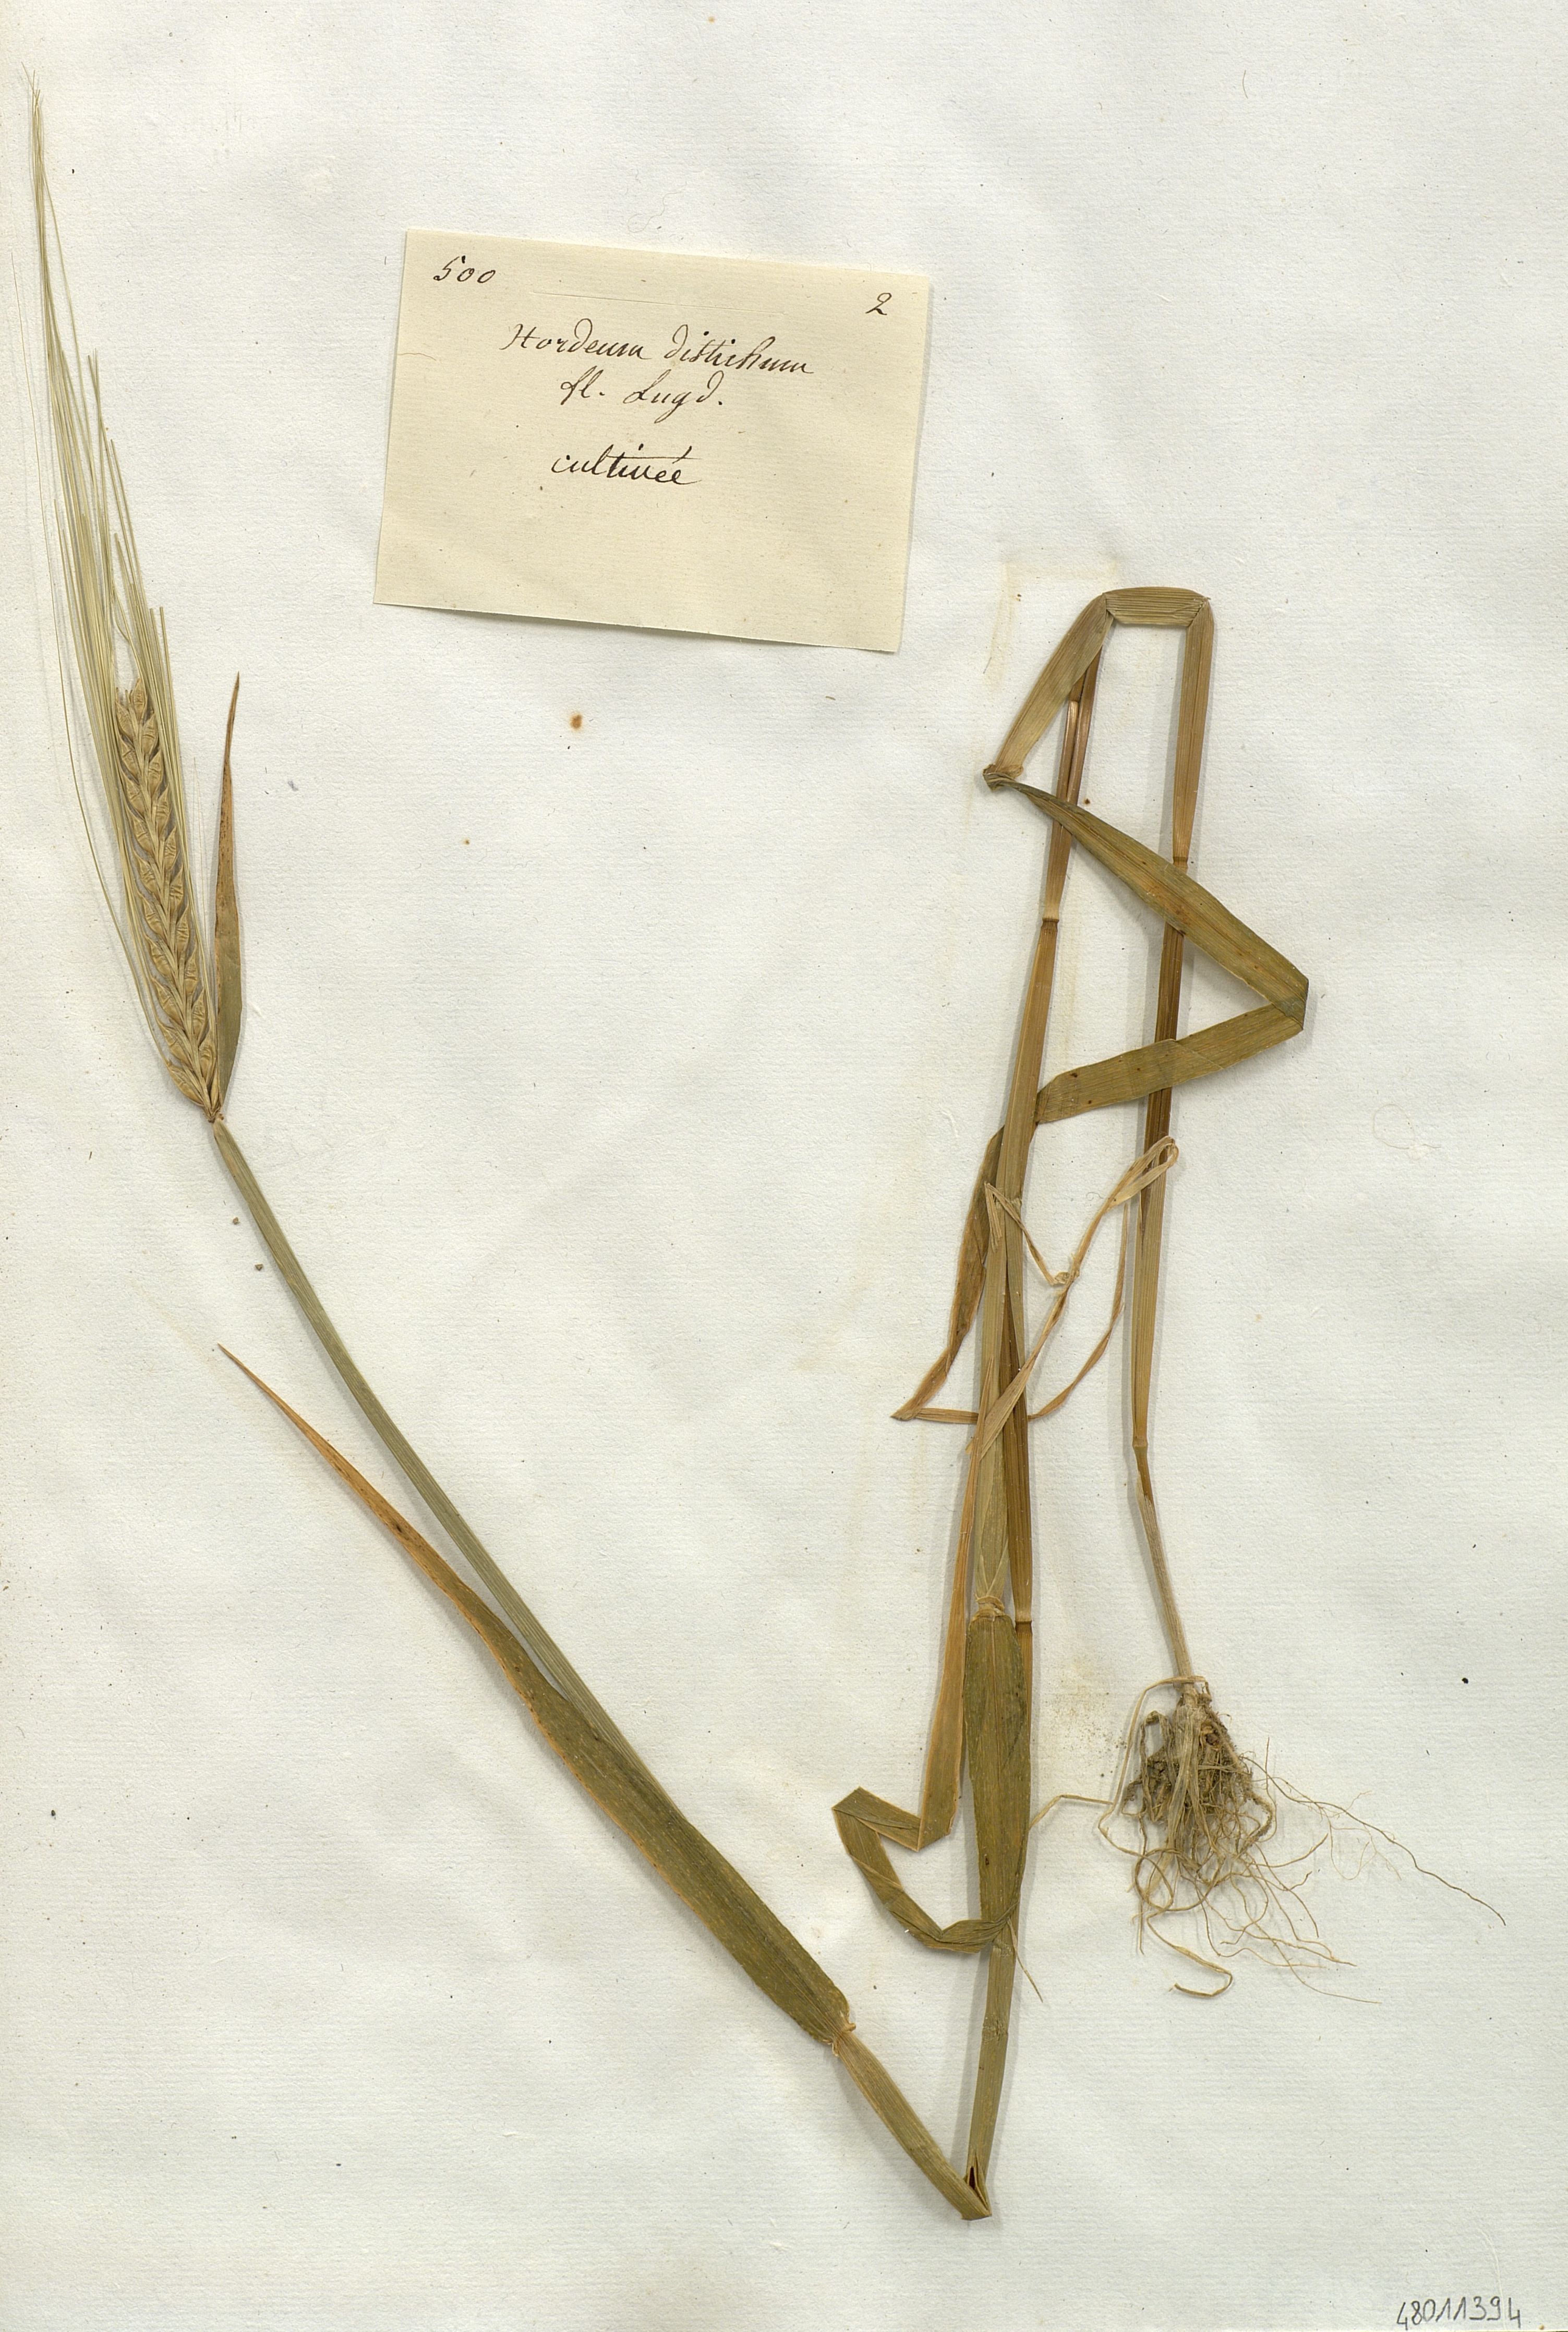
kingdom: Plantae
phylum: Tracheophyta
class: Liliopsida
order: Poales
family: Poaceae
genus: Hordeum
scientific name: Hordeum distichon
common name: Two-rowed barley
